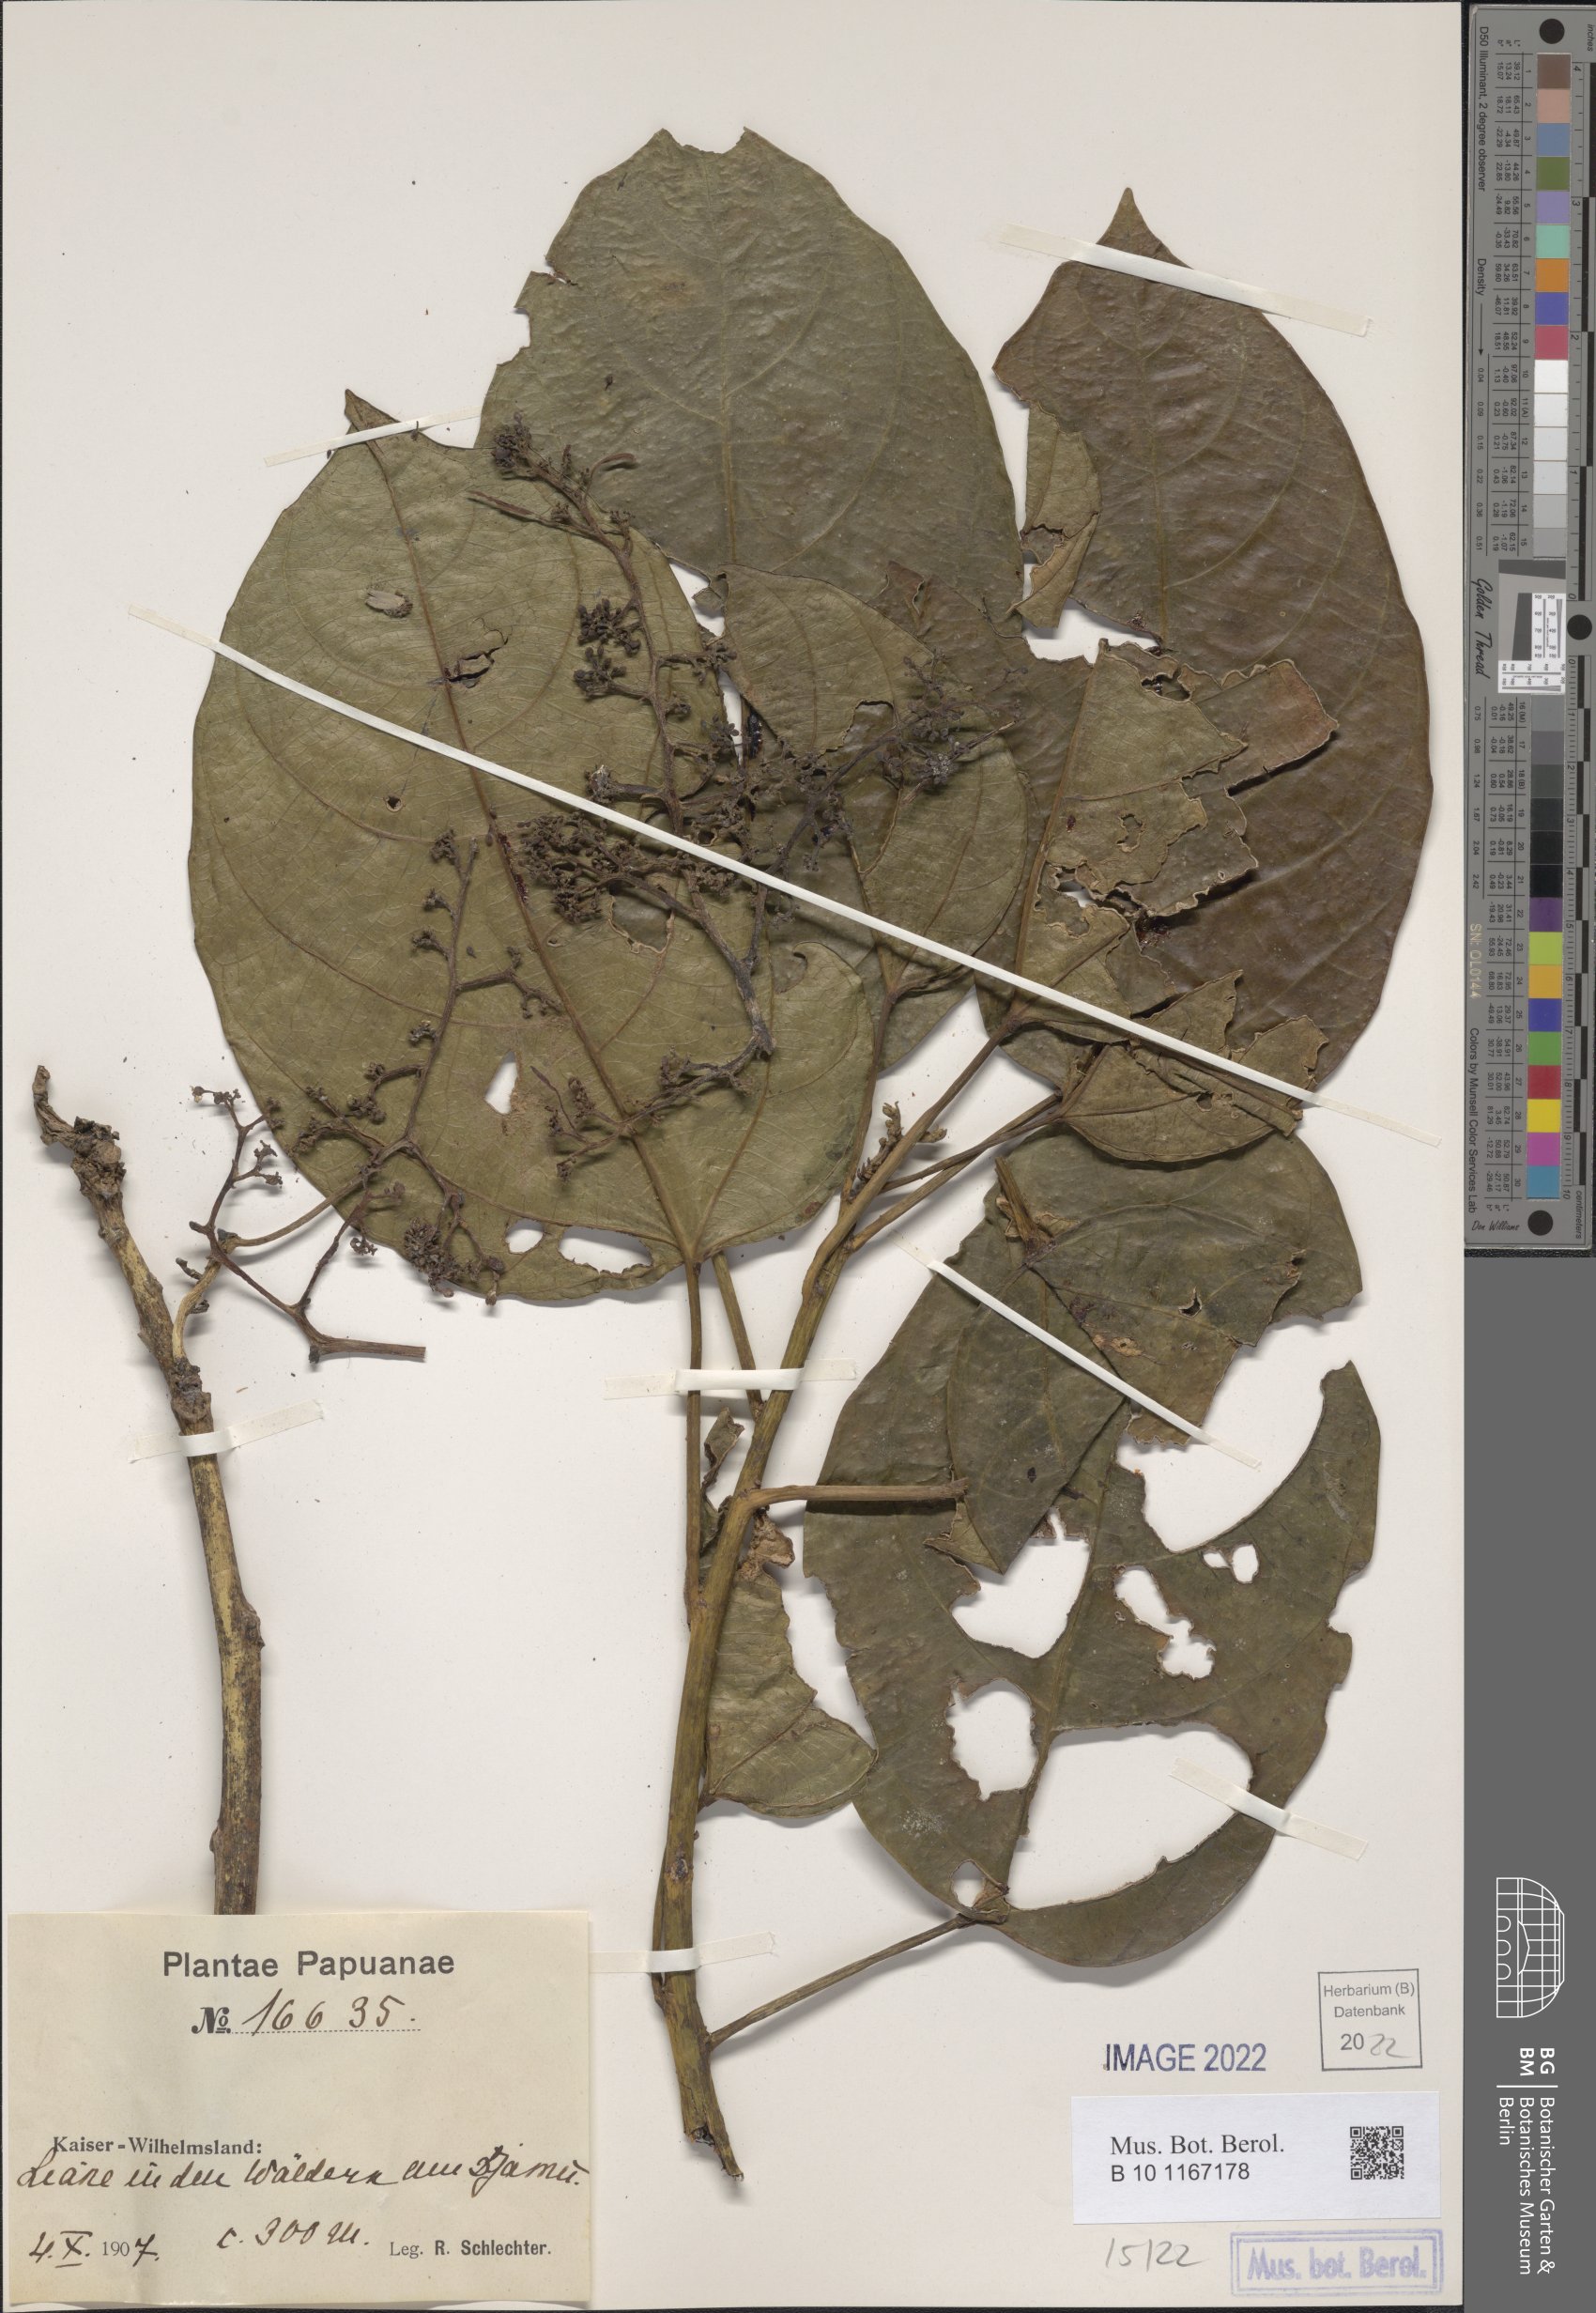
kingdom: Plantae
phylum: Tracheophyta
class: Magnoliopsida
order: Vitales
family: Vitaceae
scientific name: Vitaceae
